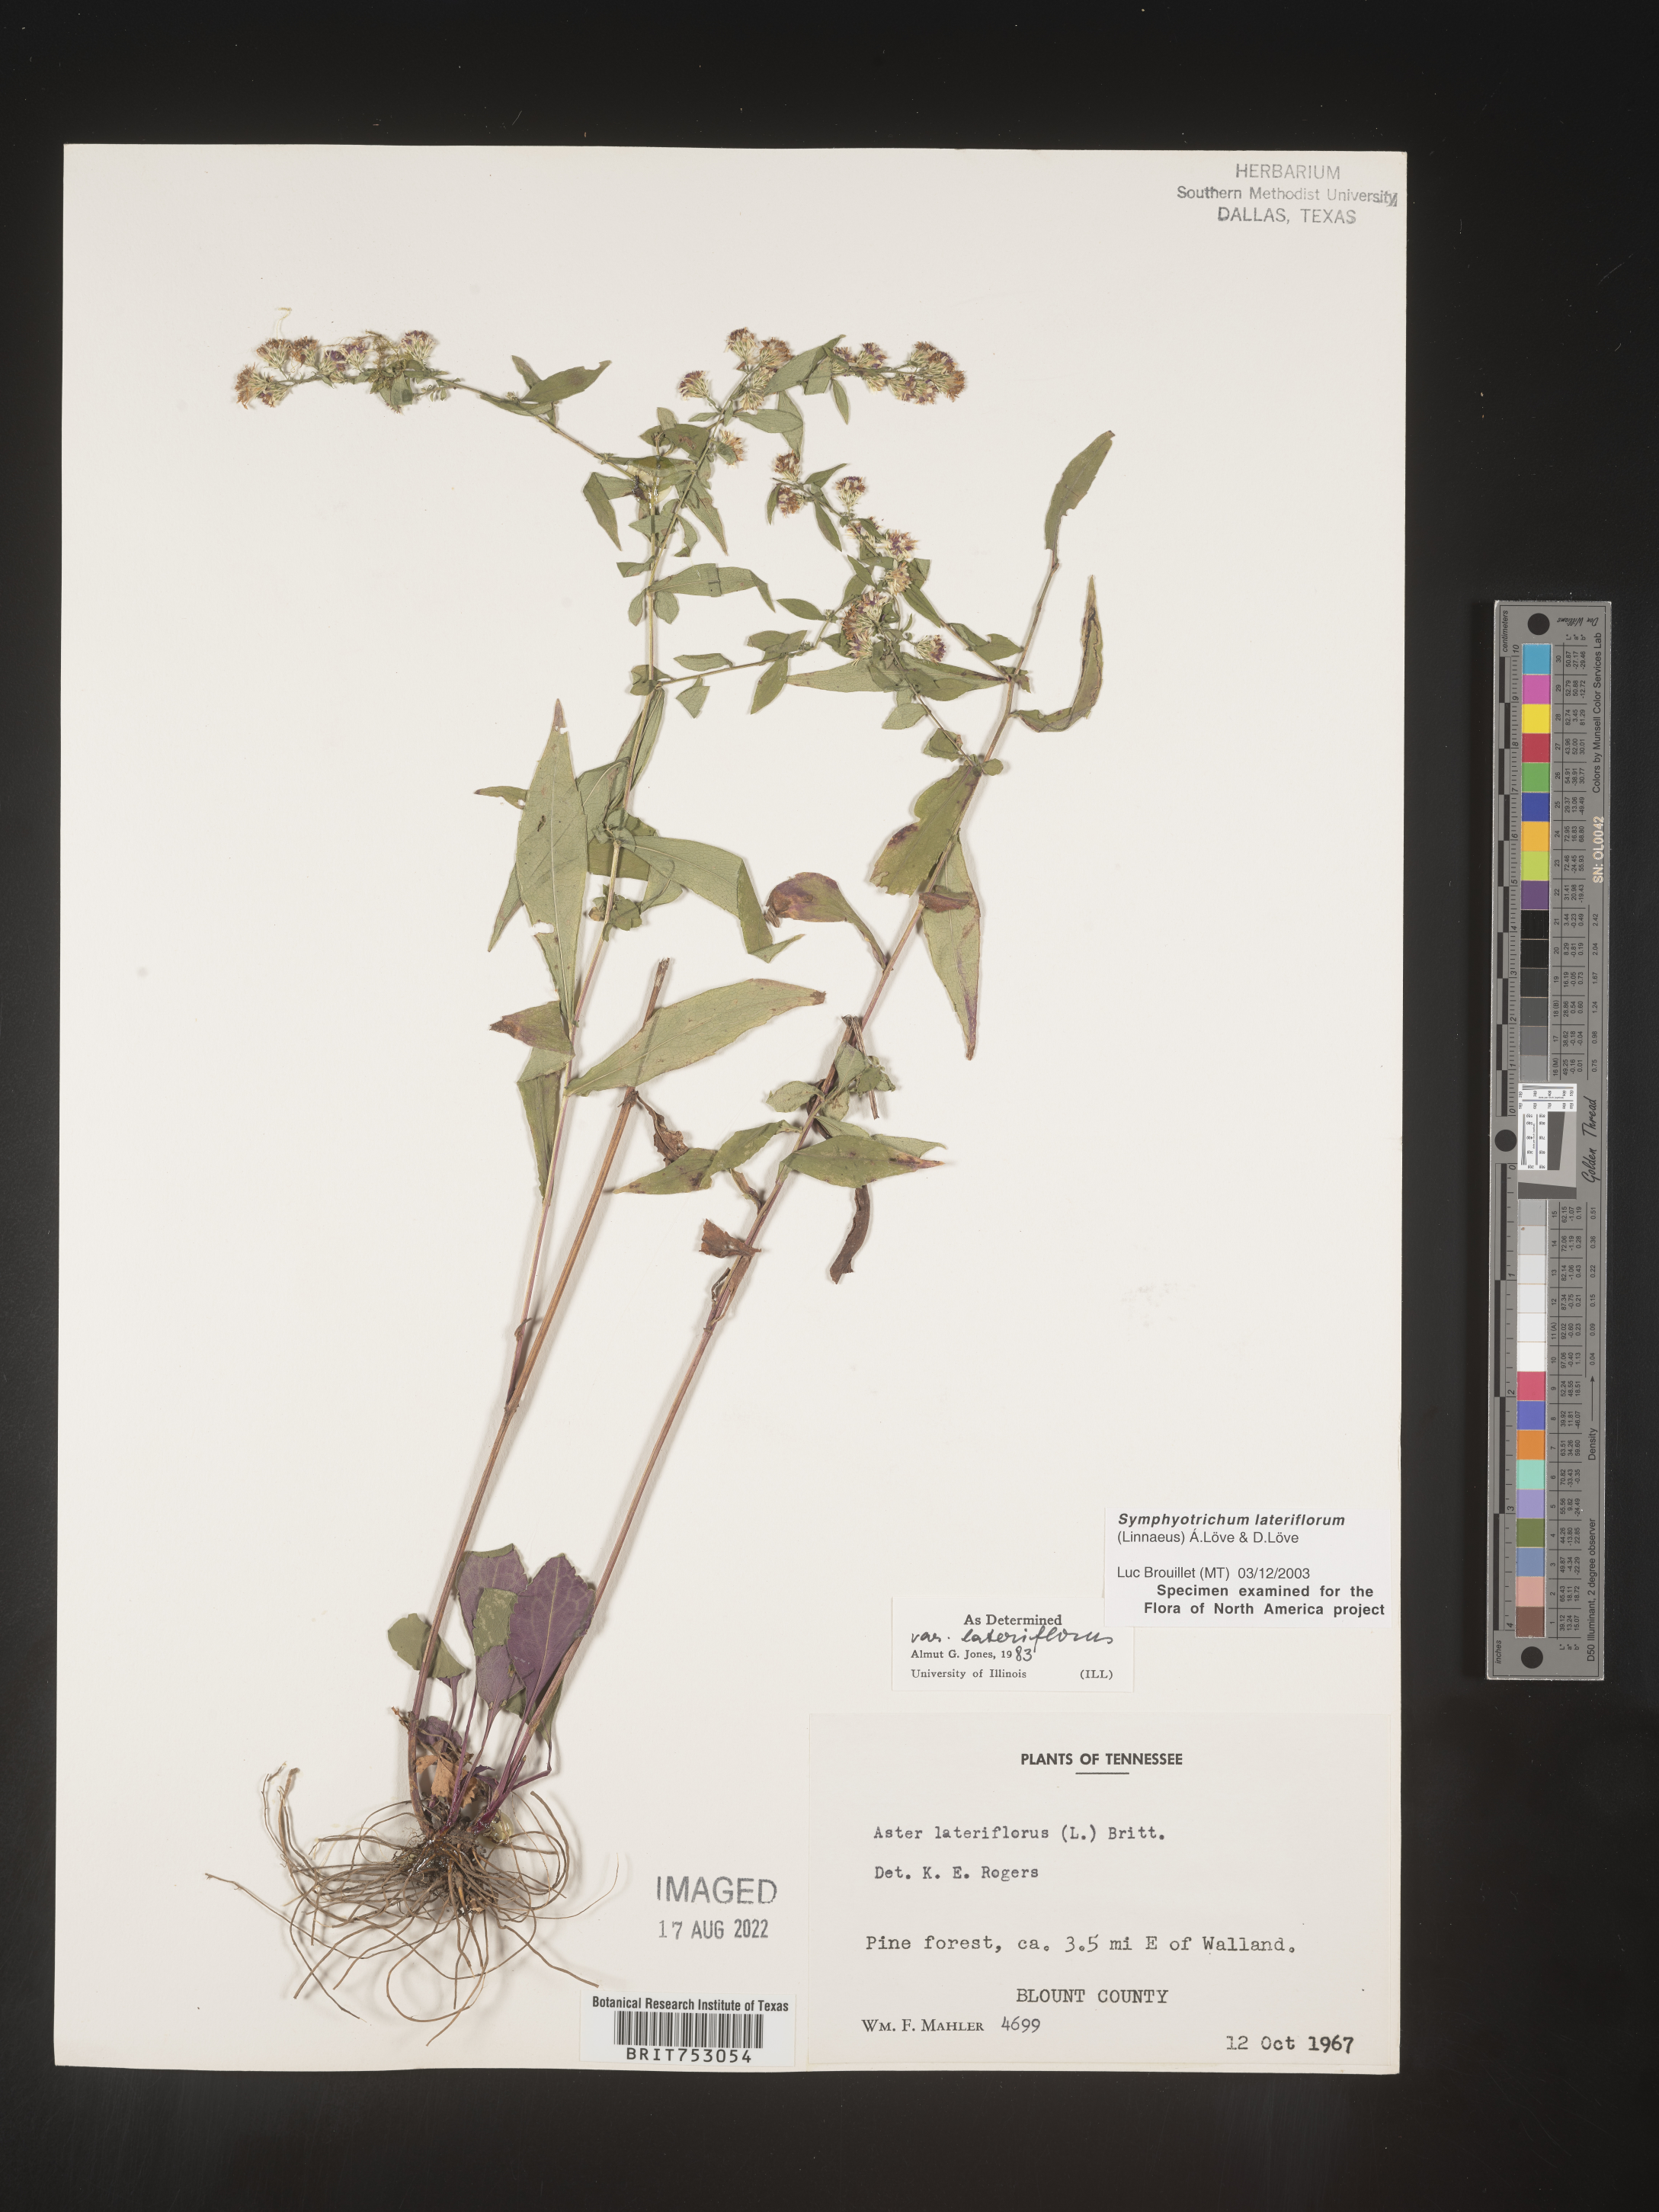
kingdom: Plantae
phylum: Tracheophyta
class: Magnoliopsida
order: Asterales
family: Asteraceae
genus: Symphyotrichum
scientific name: Symphyotrichum lateriflorum
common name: Calico aster
